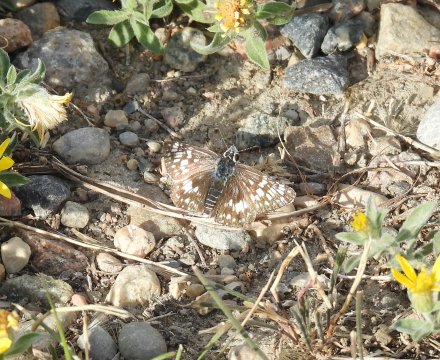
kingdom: Animalia
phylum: Arthropoda
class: Insecta
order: Lepidoptera
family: Hesperiidae
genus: Pyrgus
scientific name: Pyrgus communis
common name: Common Checkered-Skipper
